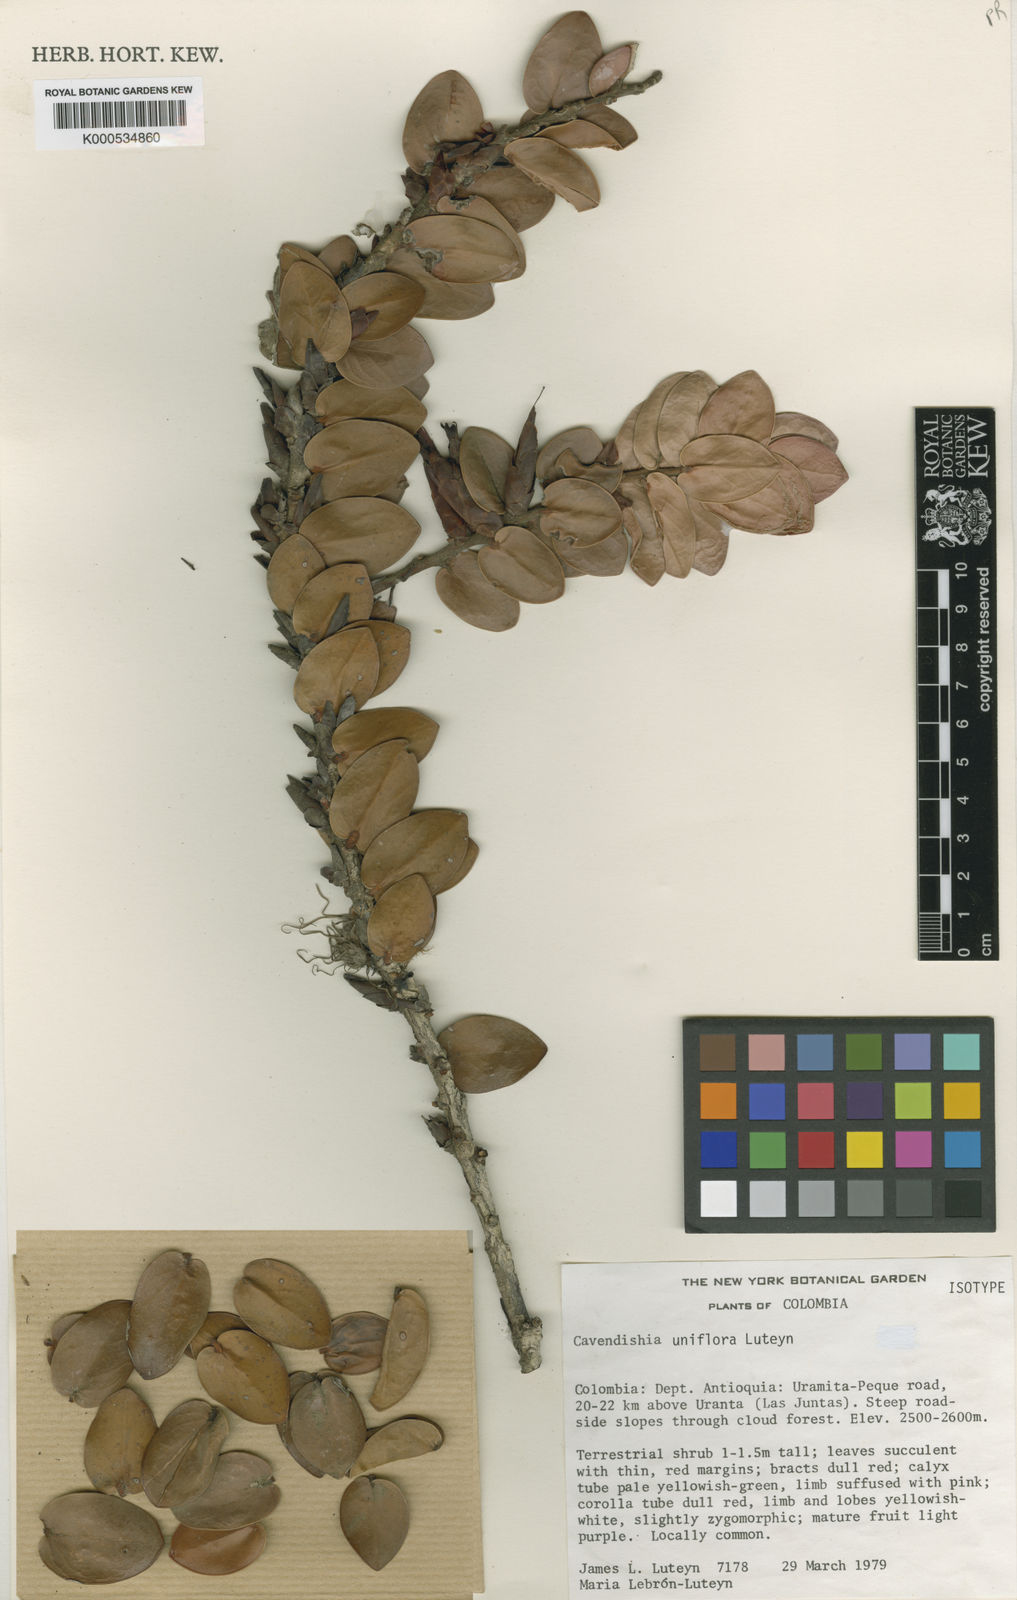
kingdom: Plantae
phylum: Tracheophyta
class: Magnoliopsida
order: Ericales
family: Ericaceae
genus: Cavendishia
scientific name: Cavendishia uniflora
